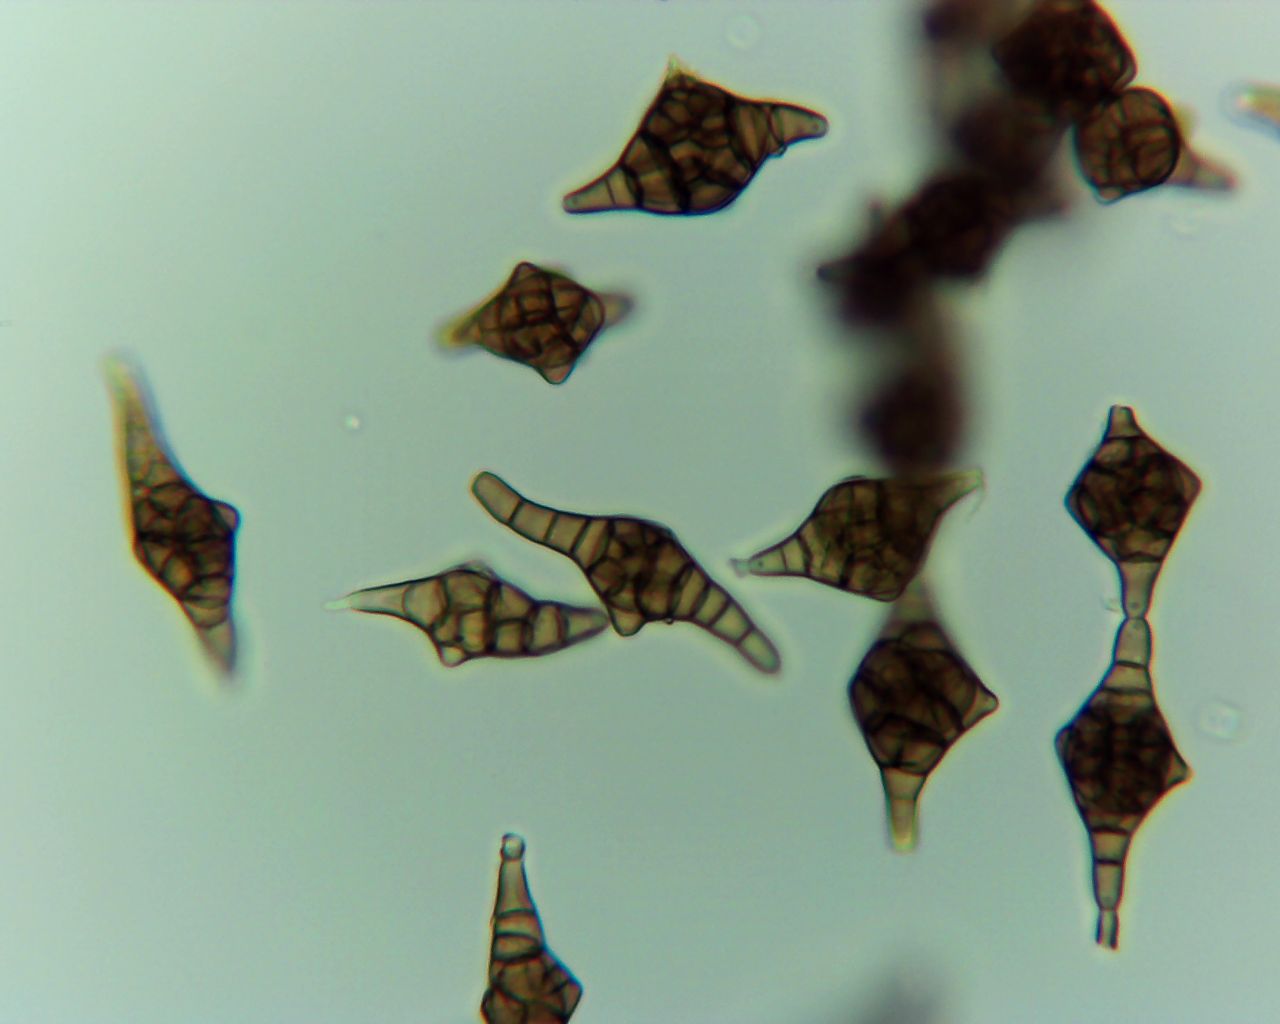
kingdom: Fungi
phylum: Ascomycota
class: Dothideomycetes
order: Pleosporales
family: Melanommataceae
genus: Phragmotrichum
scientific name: Phragmotrichum chailletii
